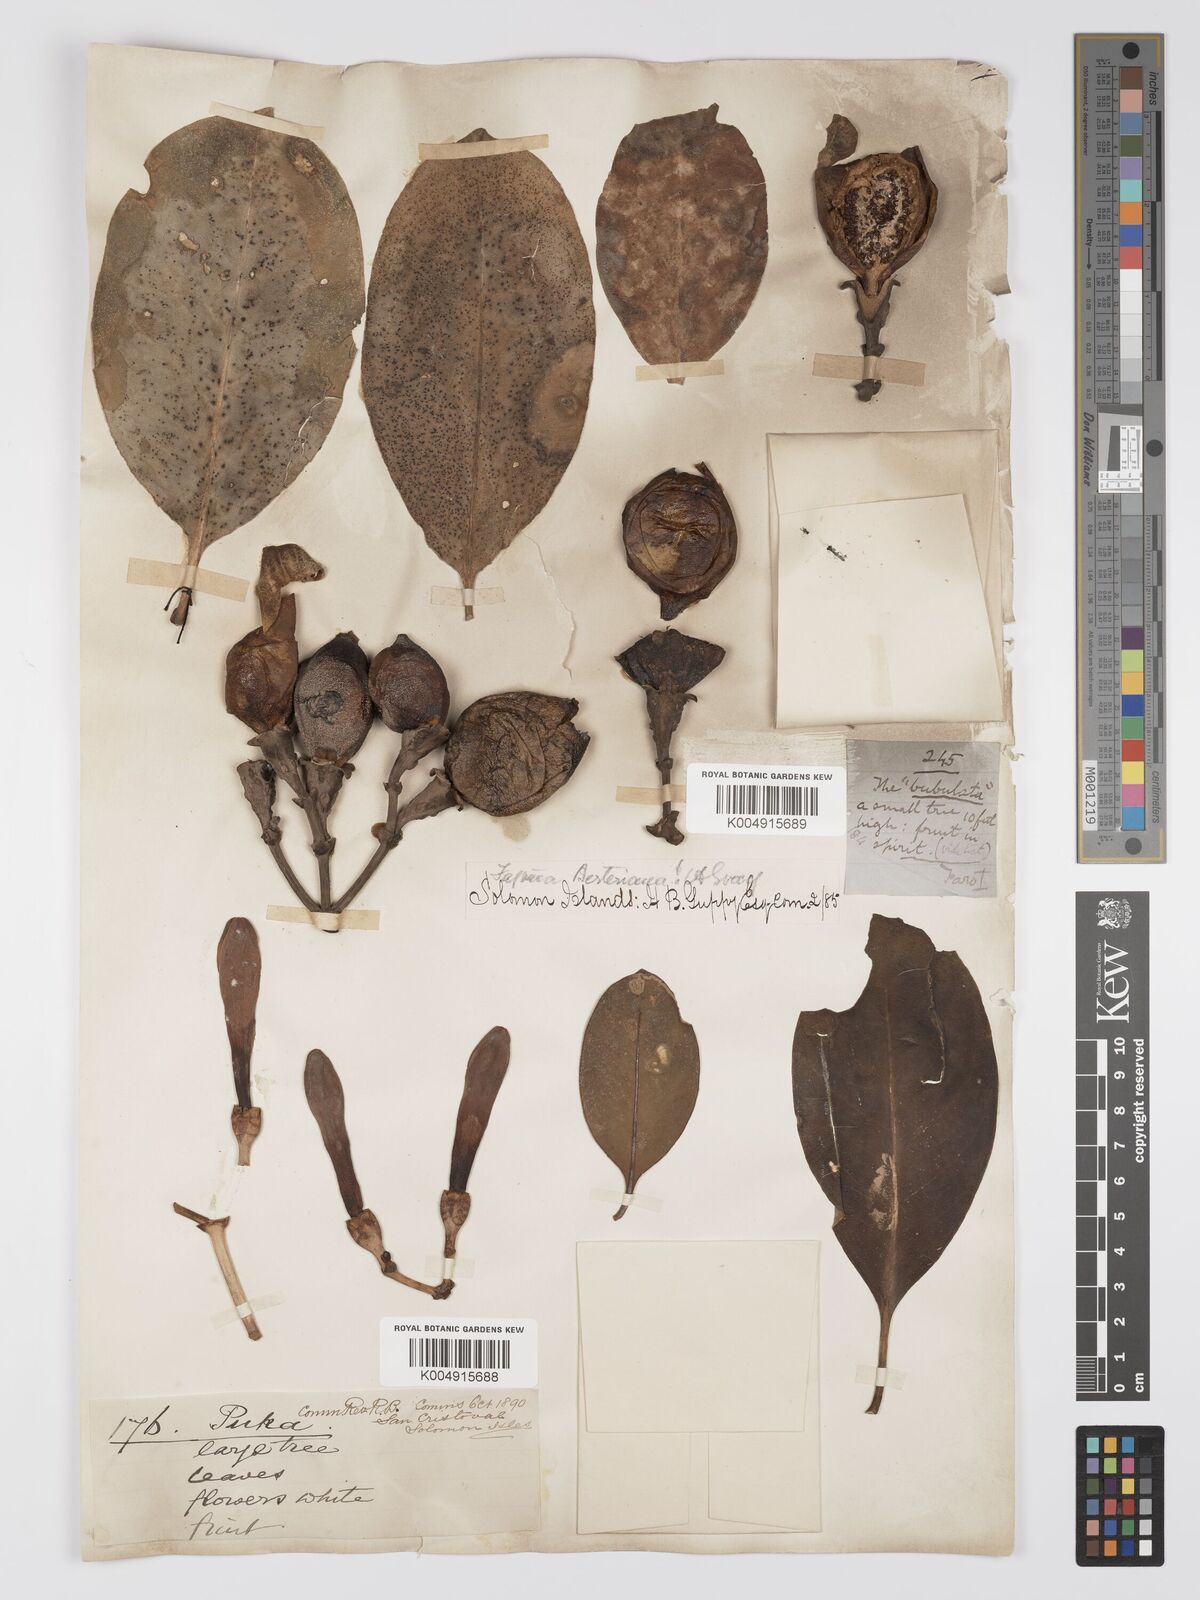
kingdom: Plantae
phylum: Tracheophyta
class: Magnoliopsida
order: Gentianales
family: Gentianaceae
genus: Fagraea
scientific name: Fagraea berteroana
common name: Cape jitta
